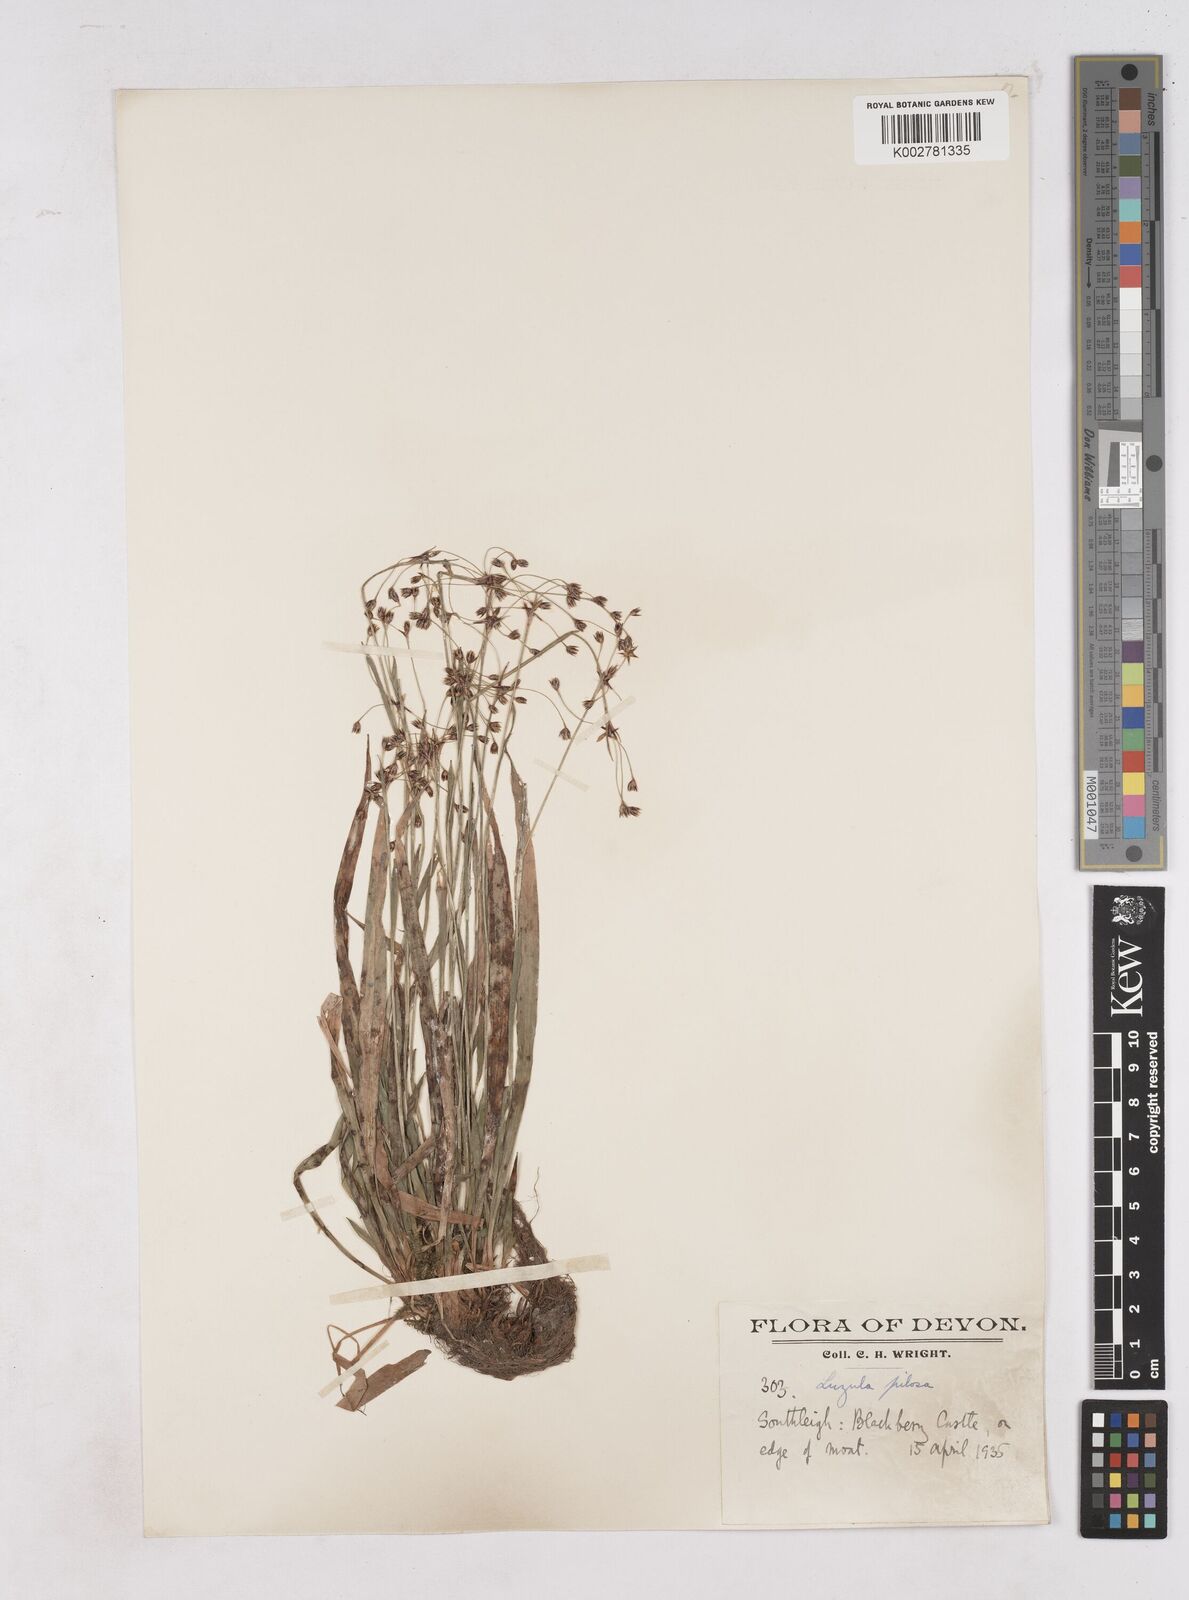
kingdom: Plantae
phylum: Tracheophyta
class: Liliopsida
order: Poales
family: Juncaceae
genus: Luzula
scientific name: Luzula pilosa
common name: Hairy wood-rush
